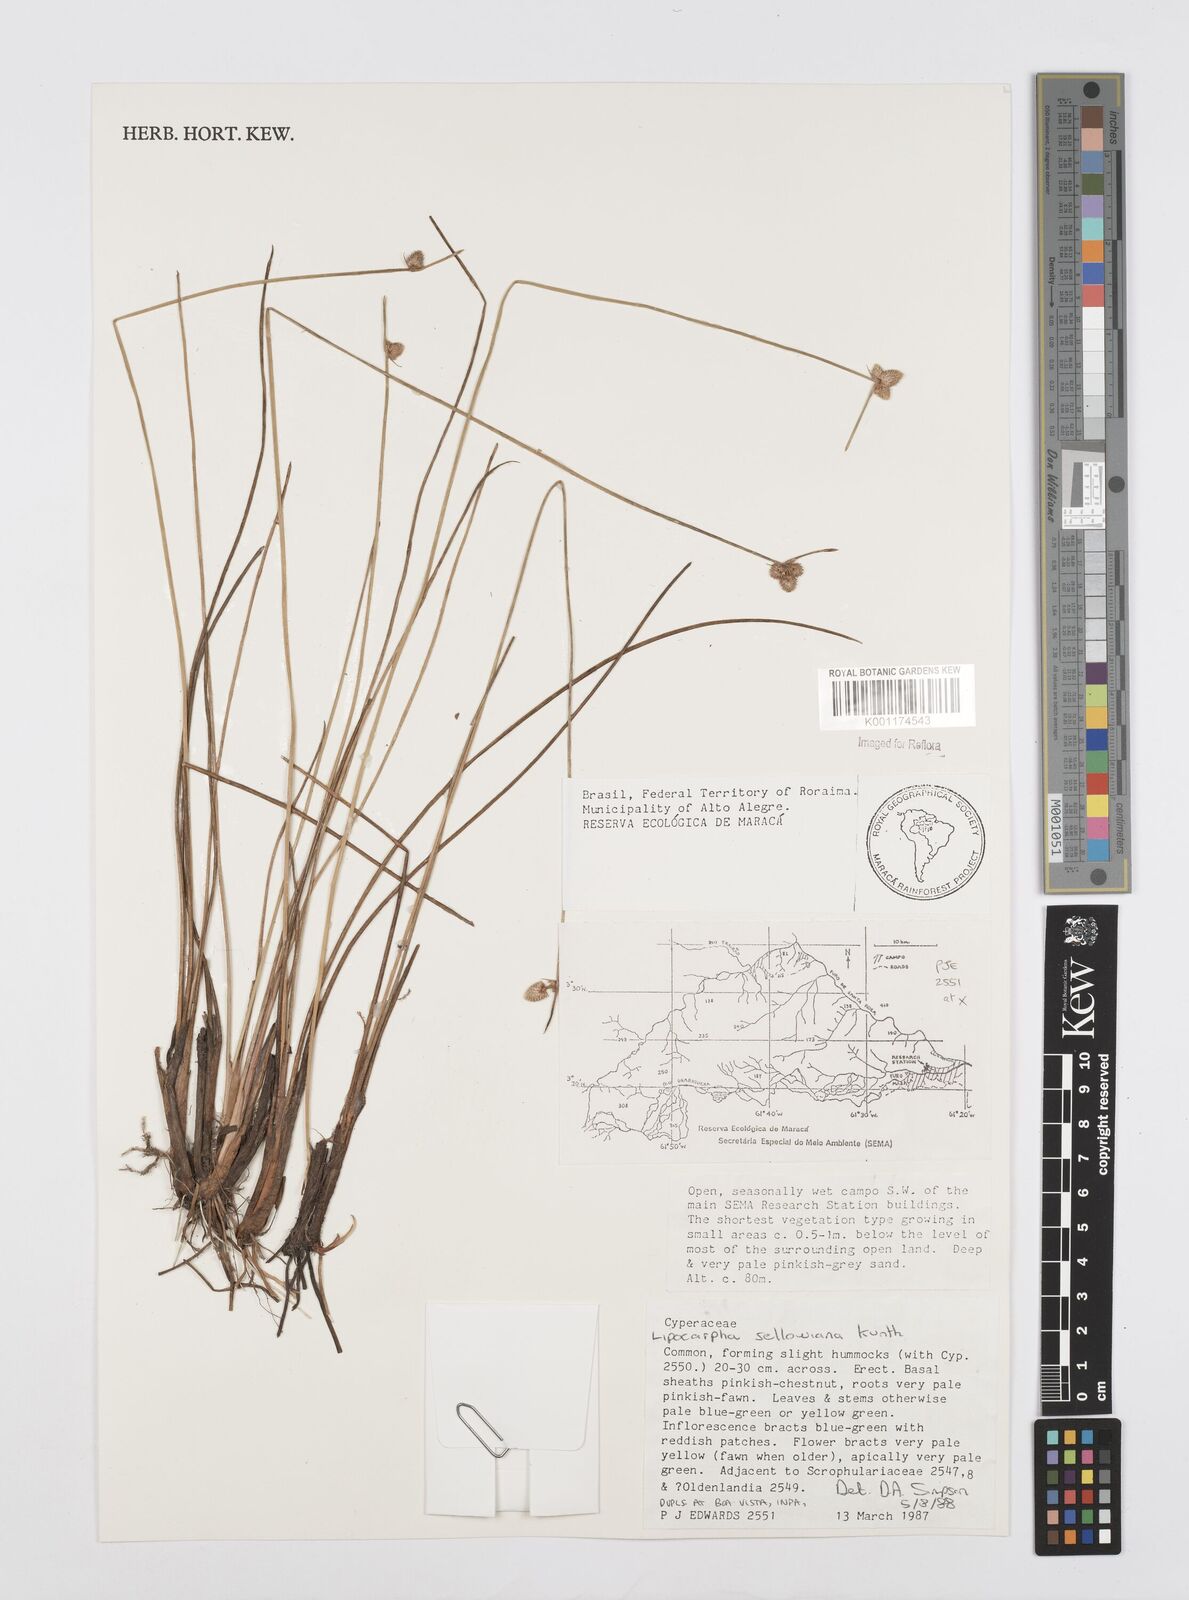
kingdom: Plantae
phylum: Tracheophyta
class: Liliopsida
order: Poales
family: Cyperaceae
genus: Cyperus
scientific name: Cyperus lanceolatus
